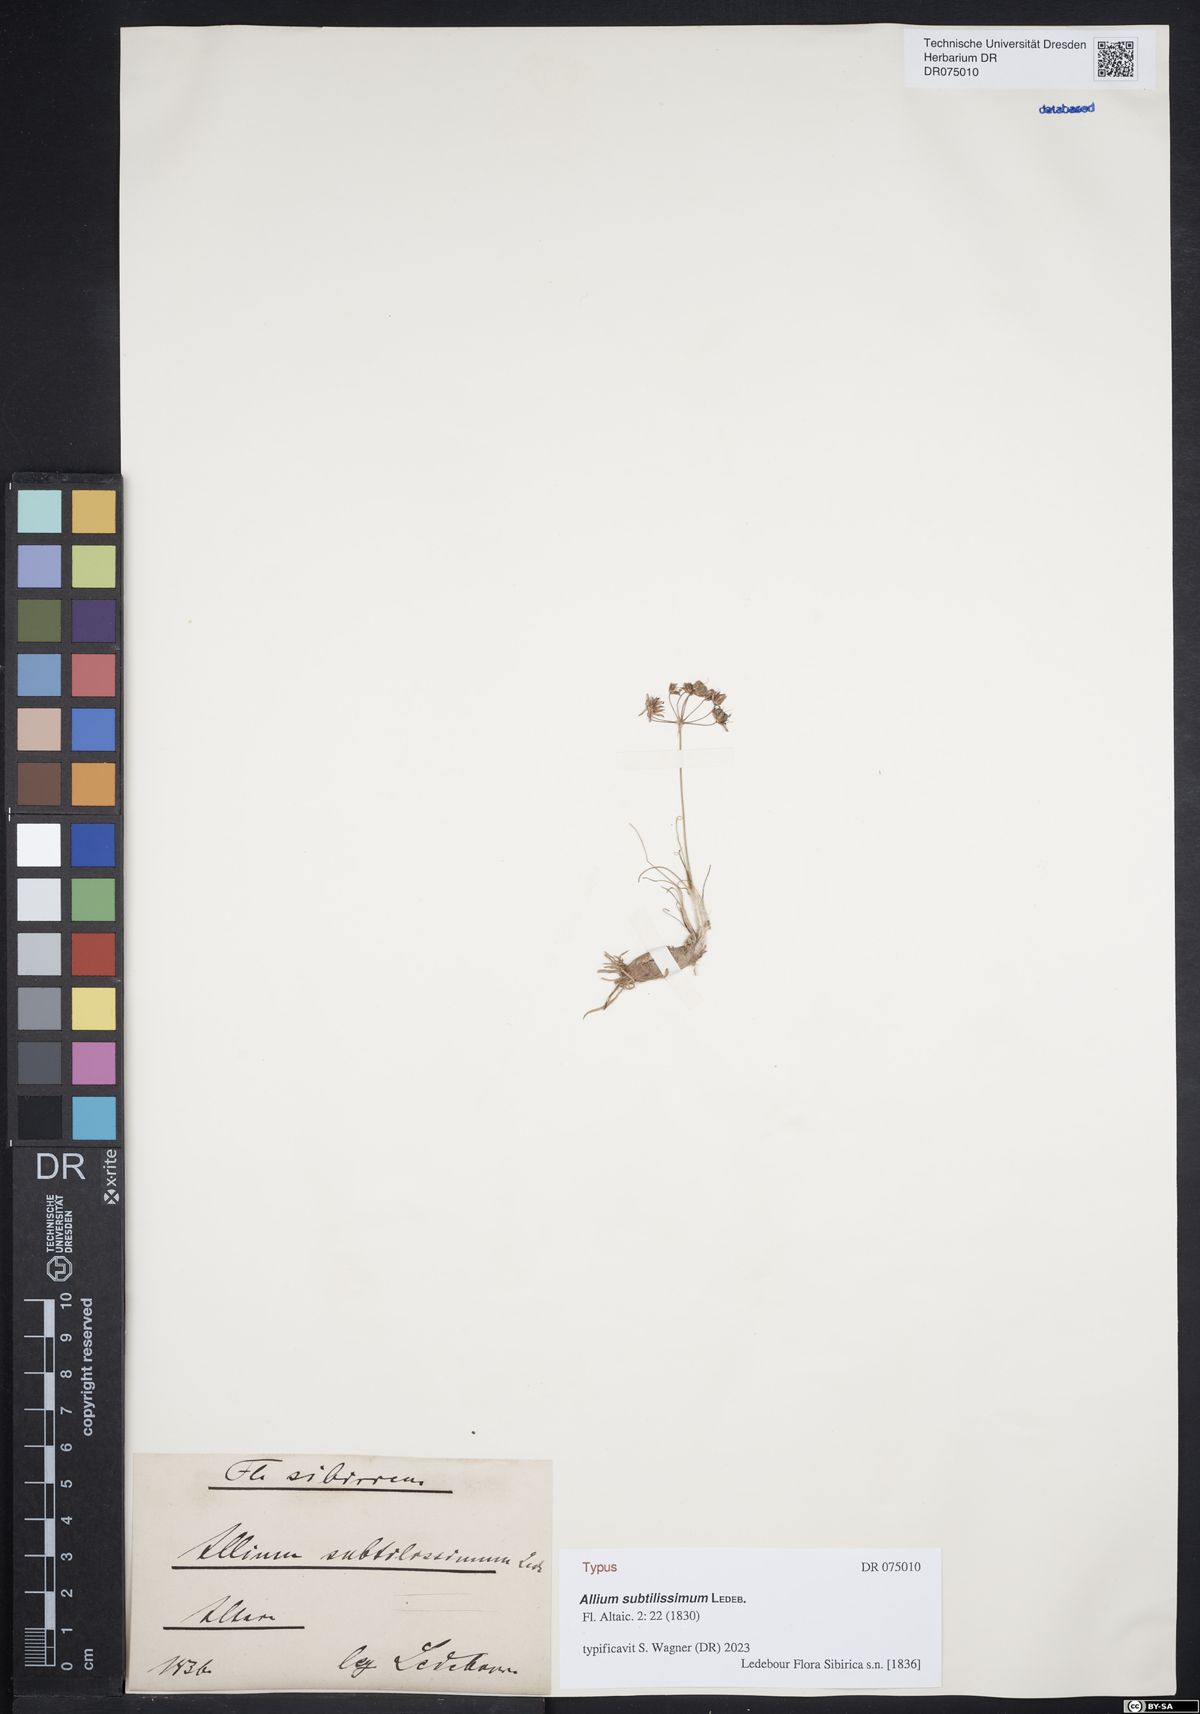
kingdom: Plantae
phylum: Tracheophyta
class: Liliopsida
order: Asparagales
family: Amaryllidaceae
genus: Allium
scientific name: Allium subtilissimum
